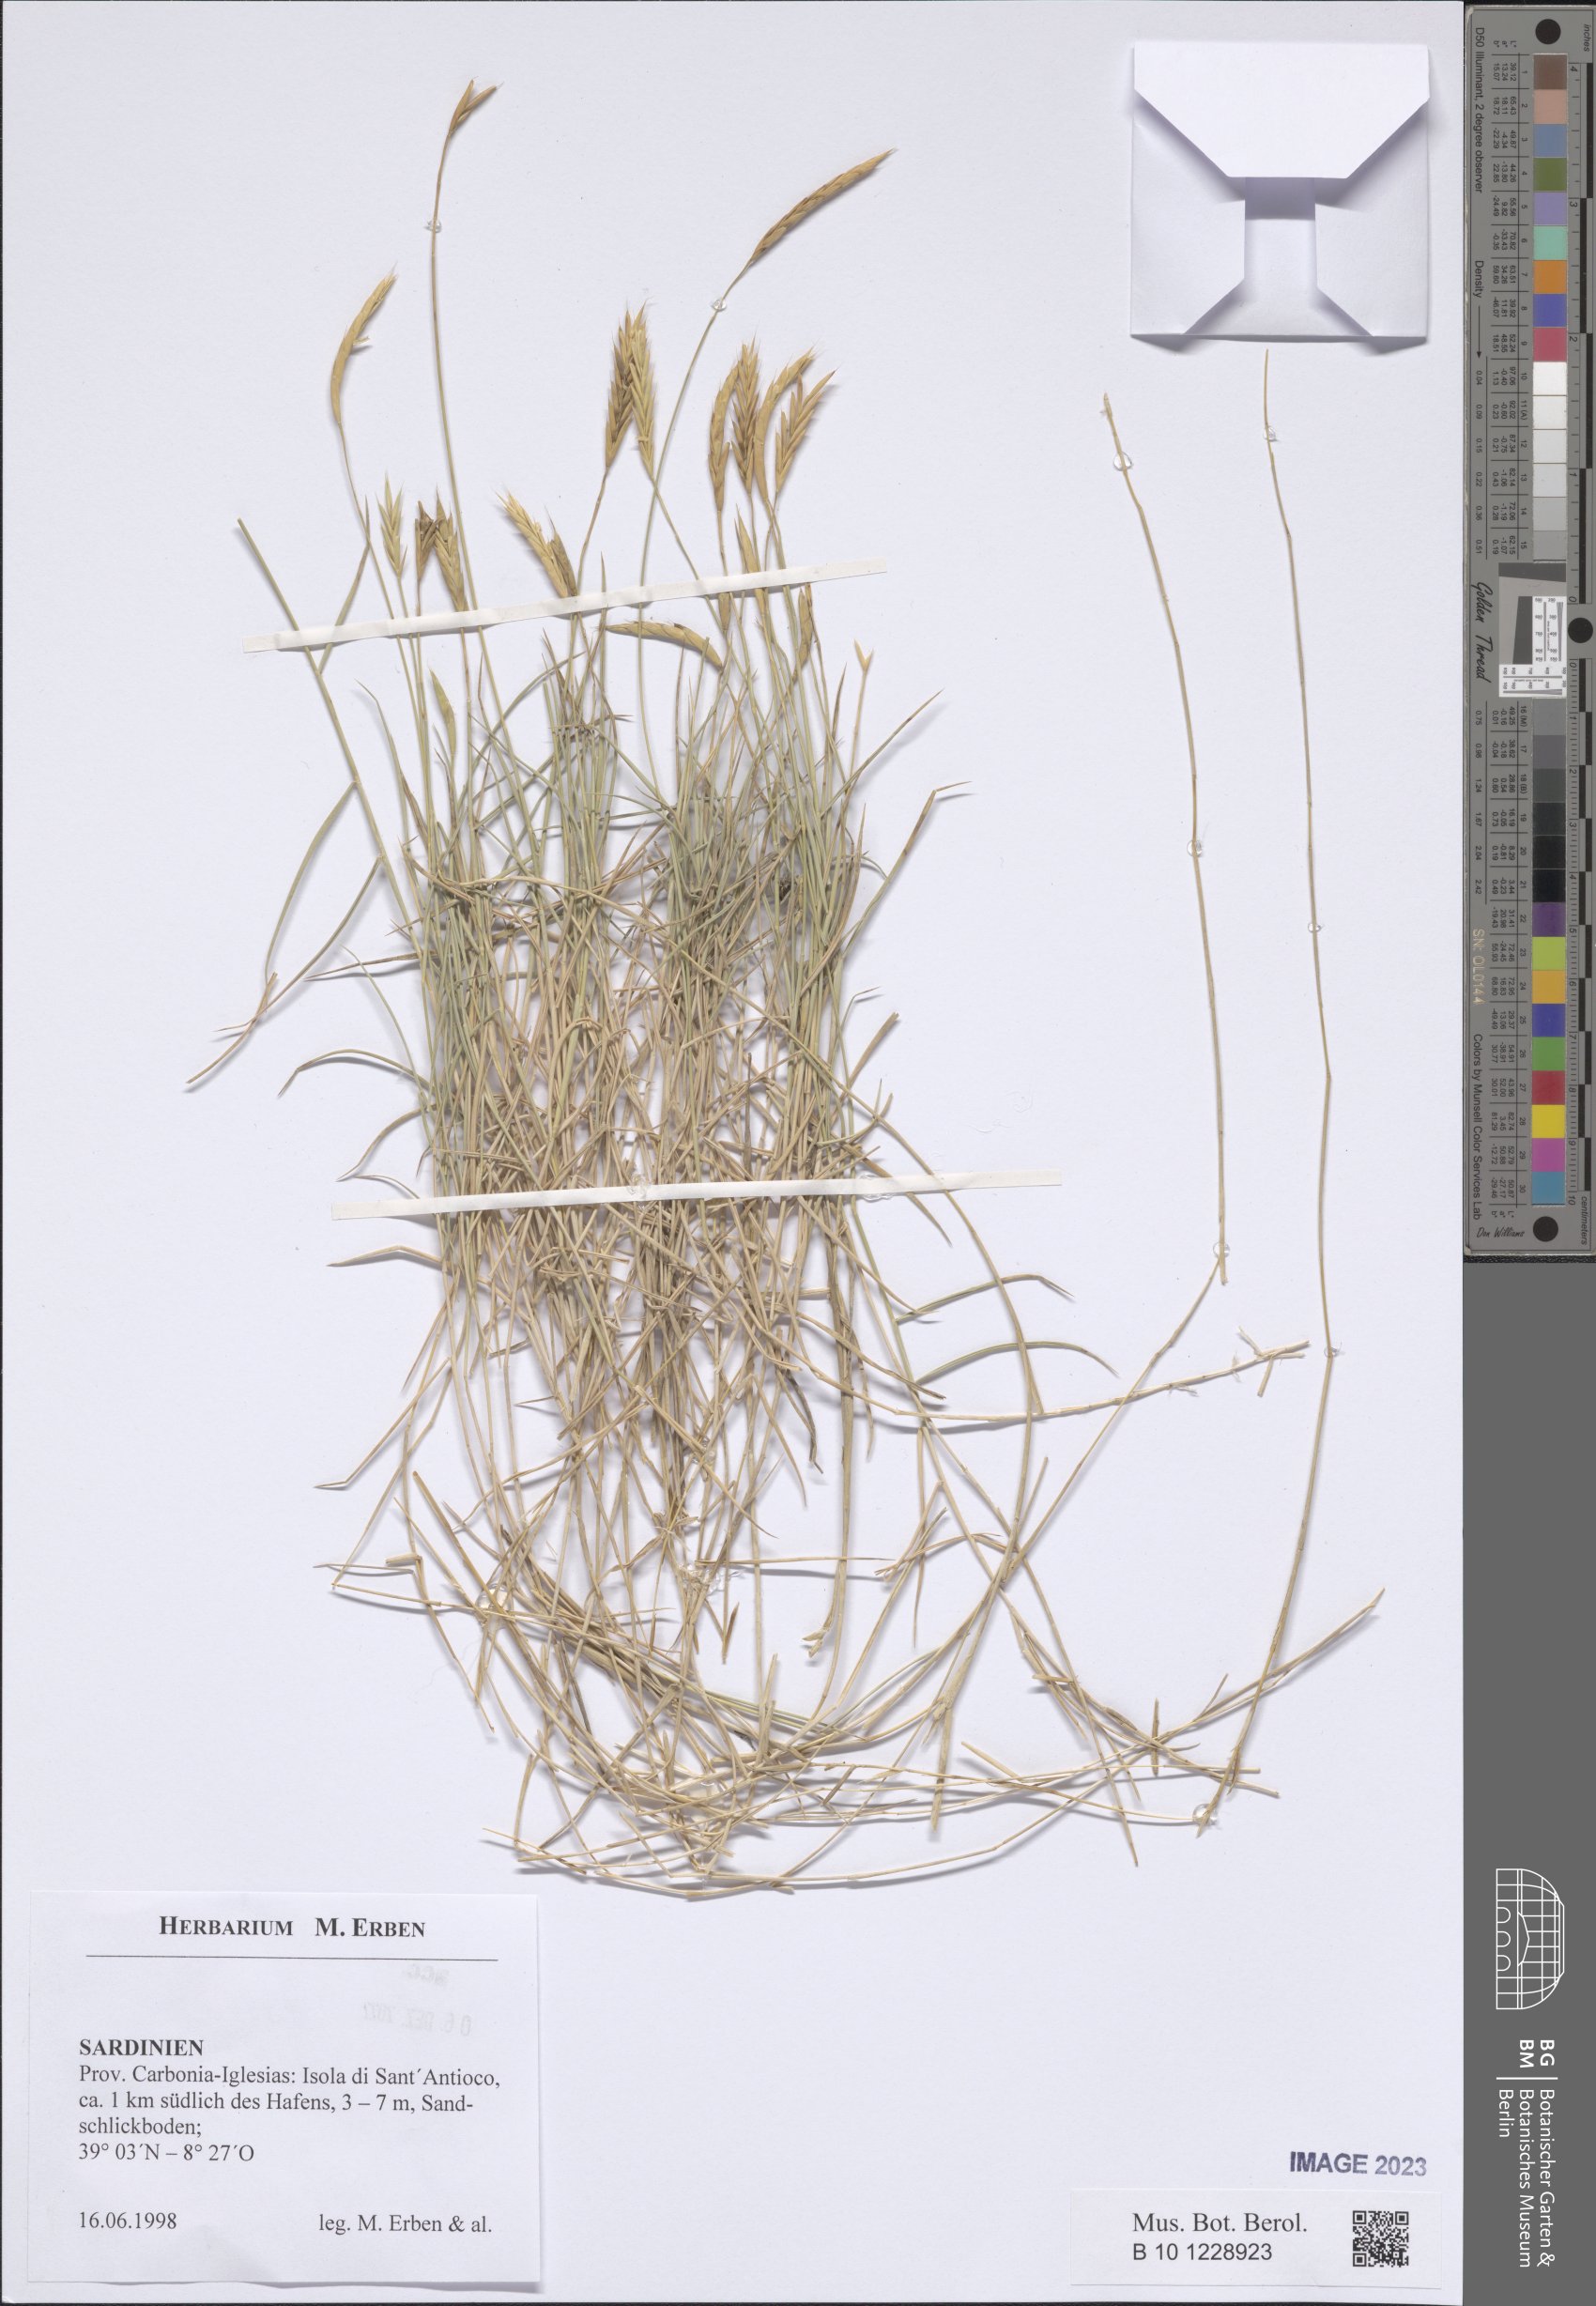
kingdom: Plantae
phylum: Tracheophyta
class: Liliopsida
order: Poales
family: Poaceae
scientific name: Poaceae
